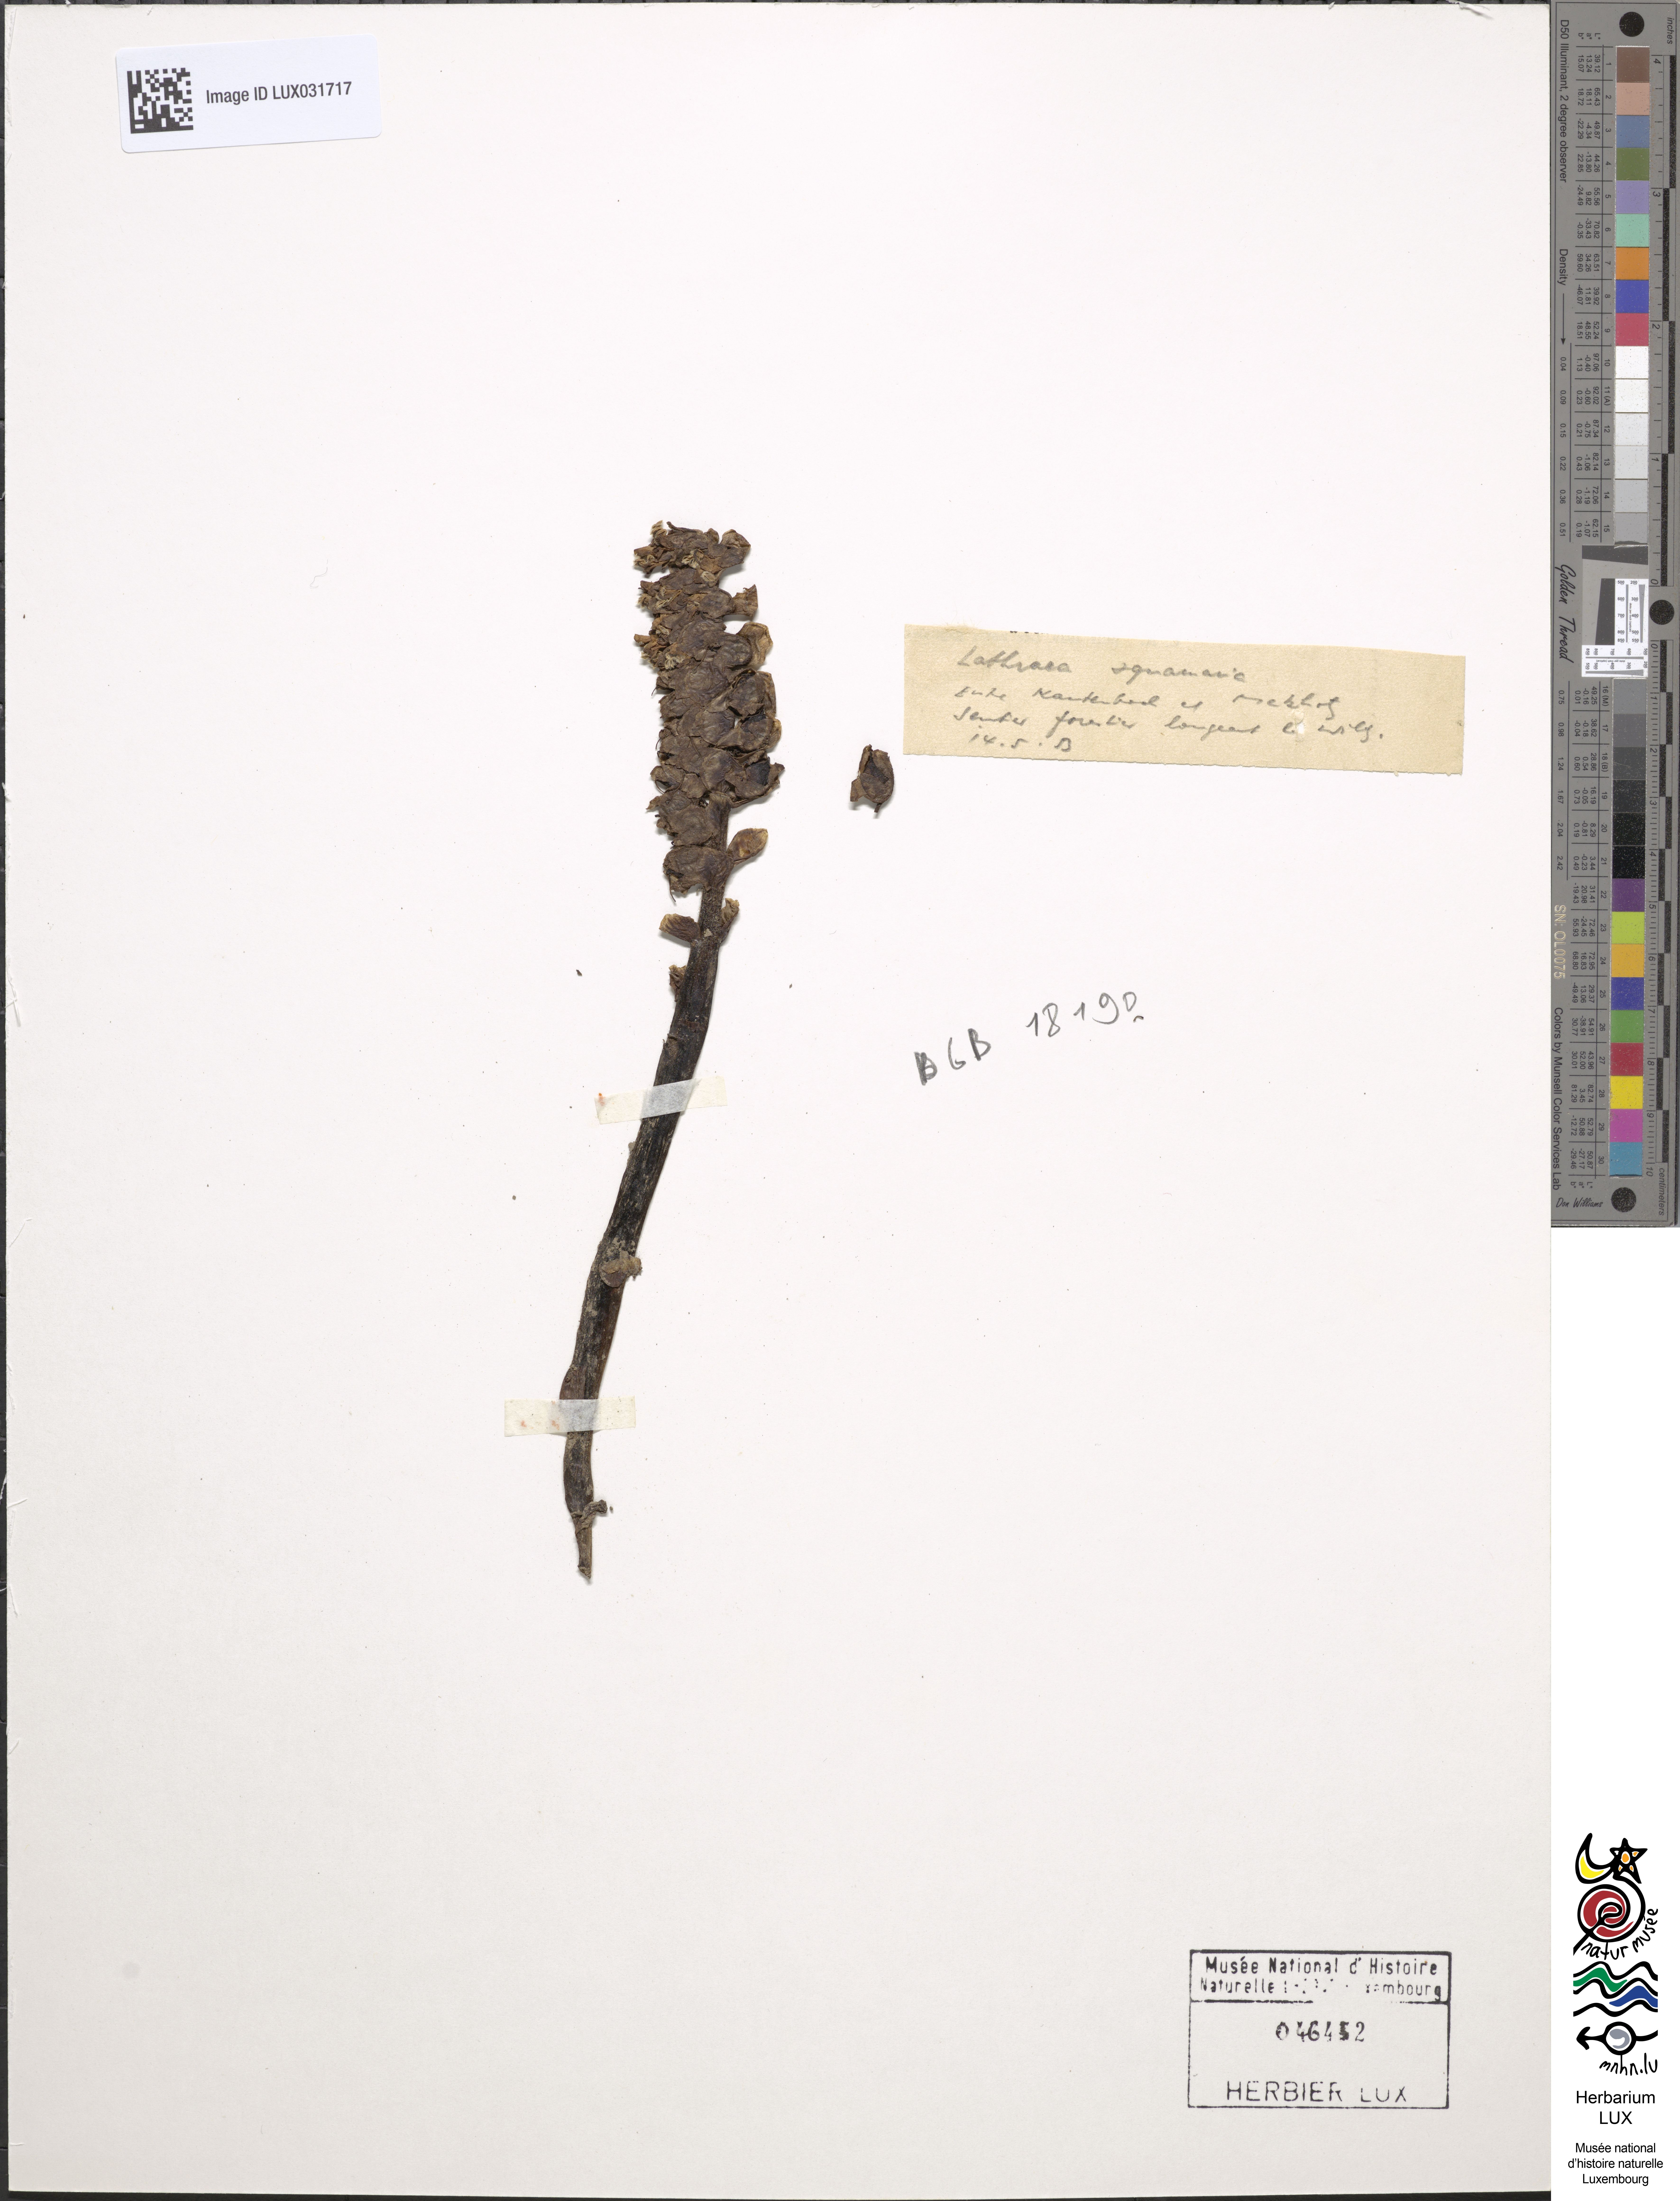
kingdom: Plantae
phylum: Tracheophyta
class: Magnoliopsida
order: Lamiales
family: Orobanchaceae
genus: Lathraea
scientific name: Lathraea squamaria
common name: Toothwort
